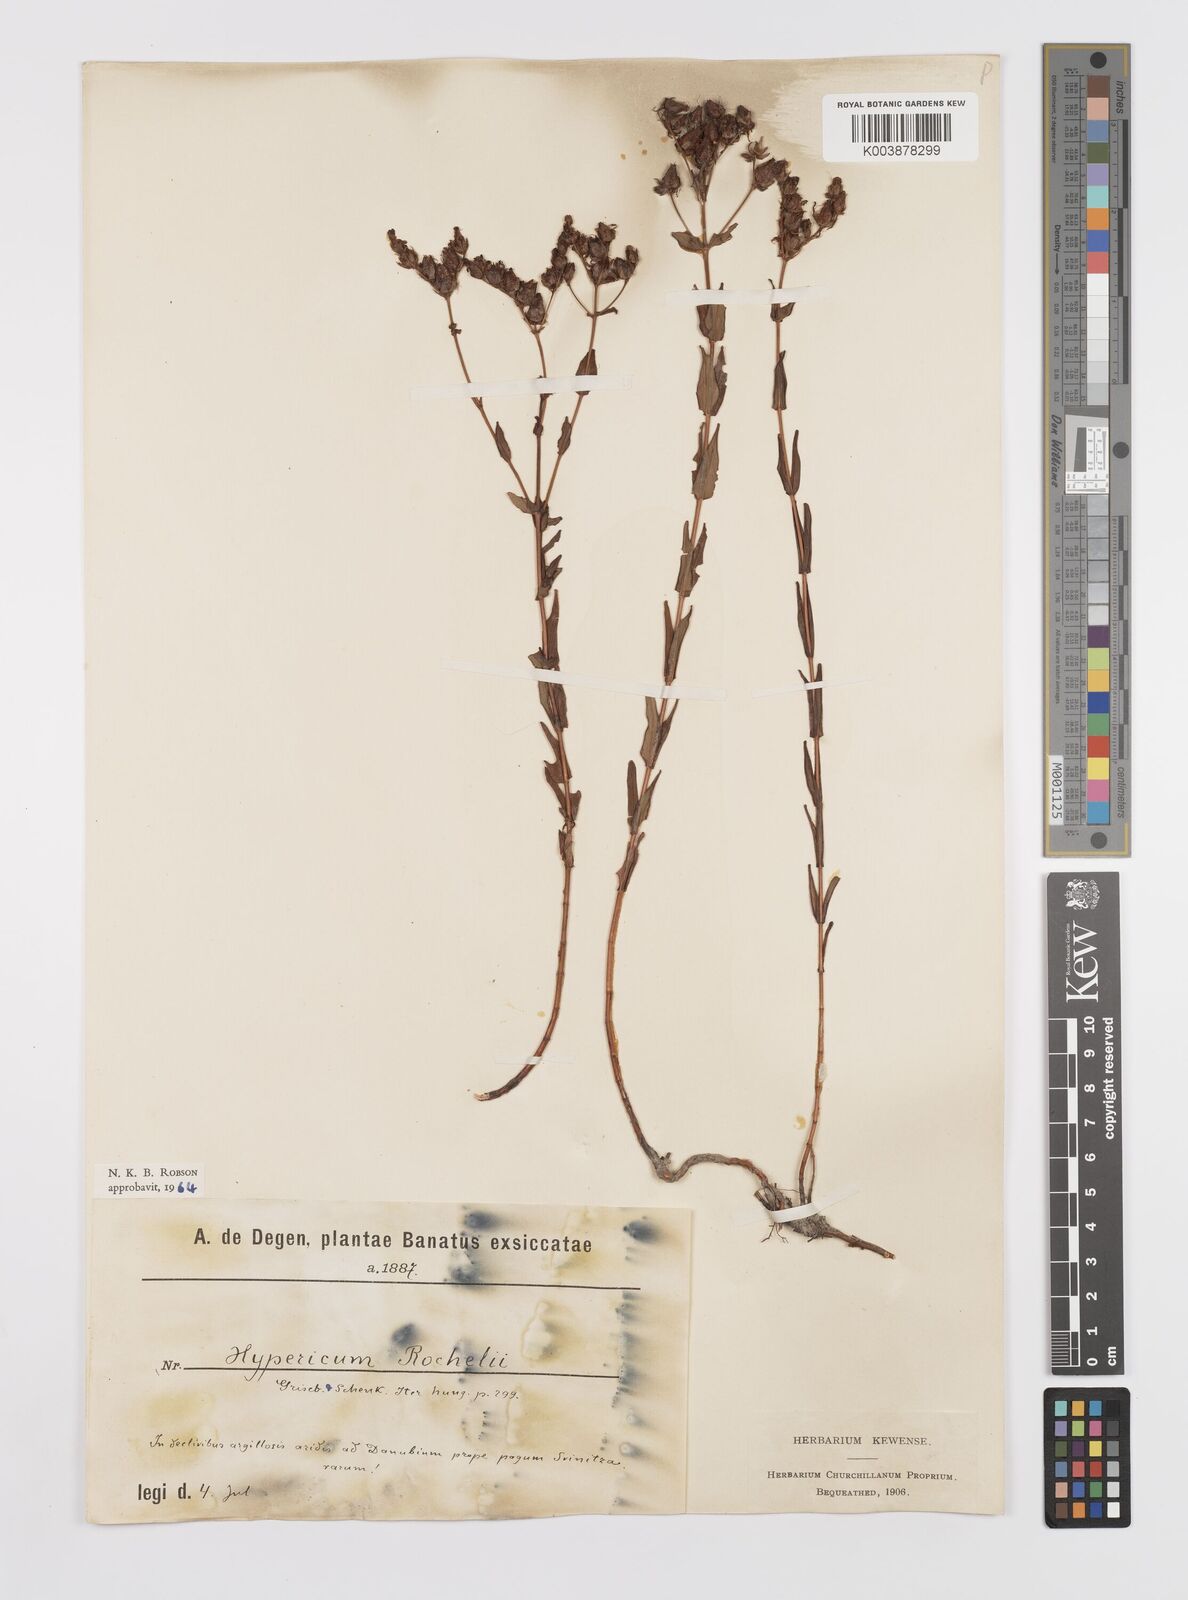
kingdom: Plantae
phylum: Tracheophyta
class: Magnoliopsida
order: Malpighiales
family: Hypericaceae
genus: Hypericum
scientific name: Hypericum rochelii
